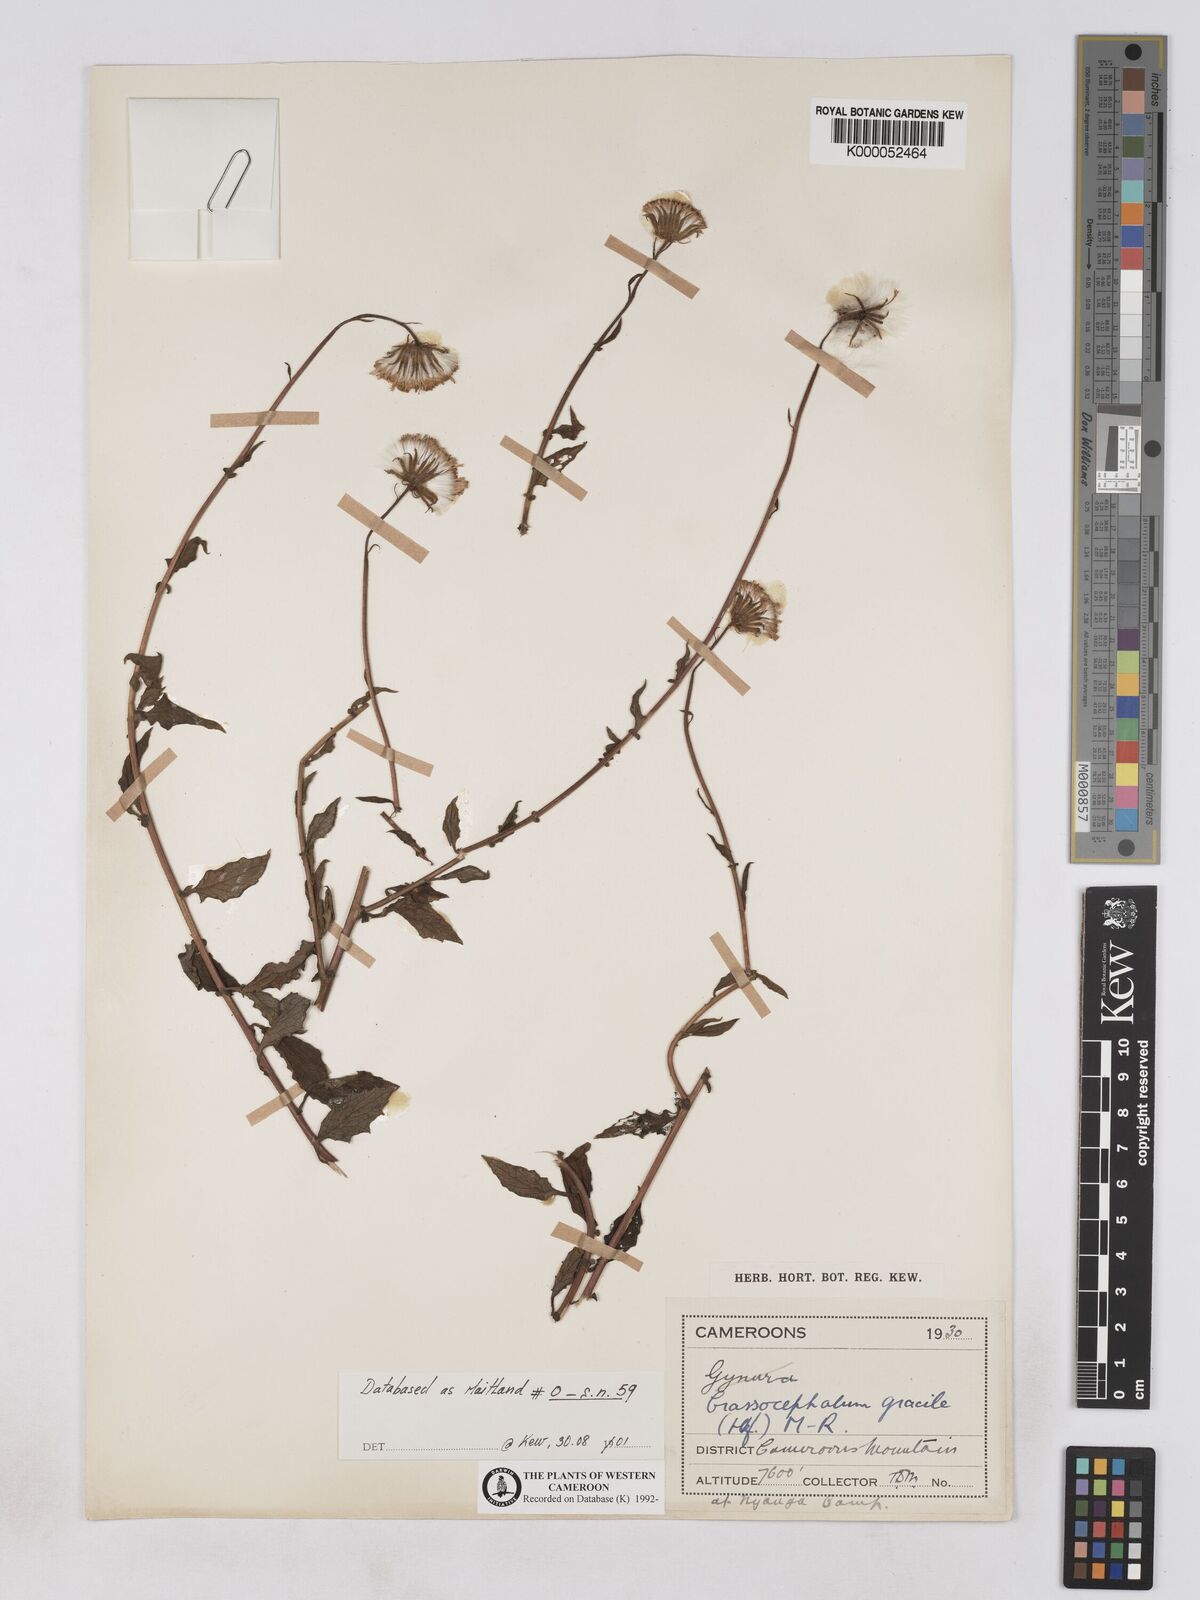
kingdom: Plantae
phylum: Tracheophyta
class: Magnoliopsida
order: Asterales
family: Asteraceae
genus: Crassocephalum
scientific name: Crassocephalum
